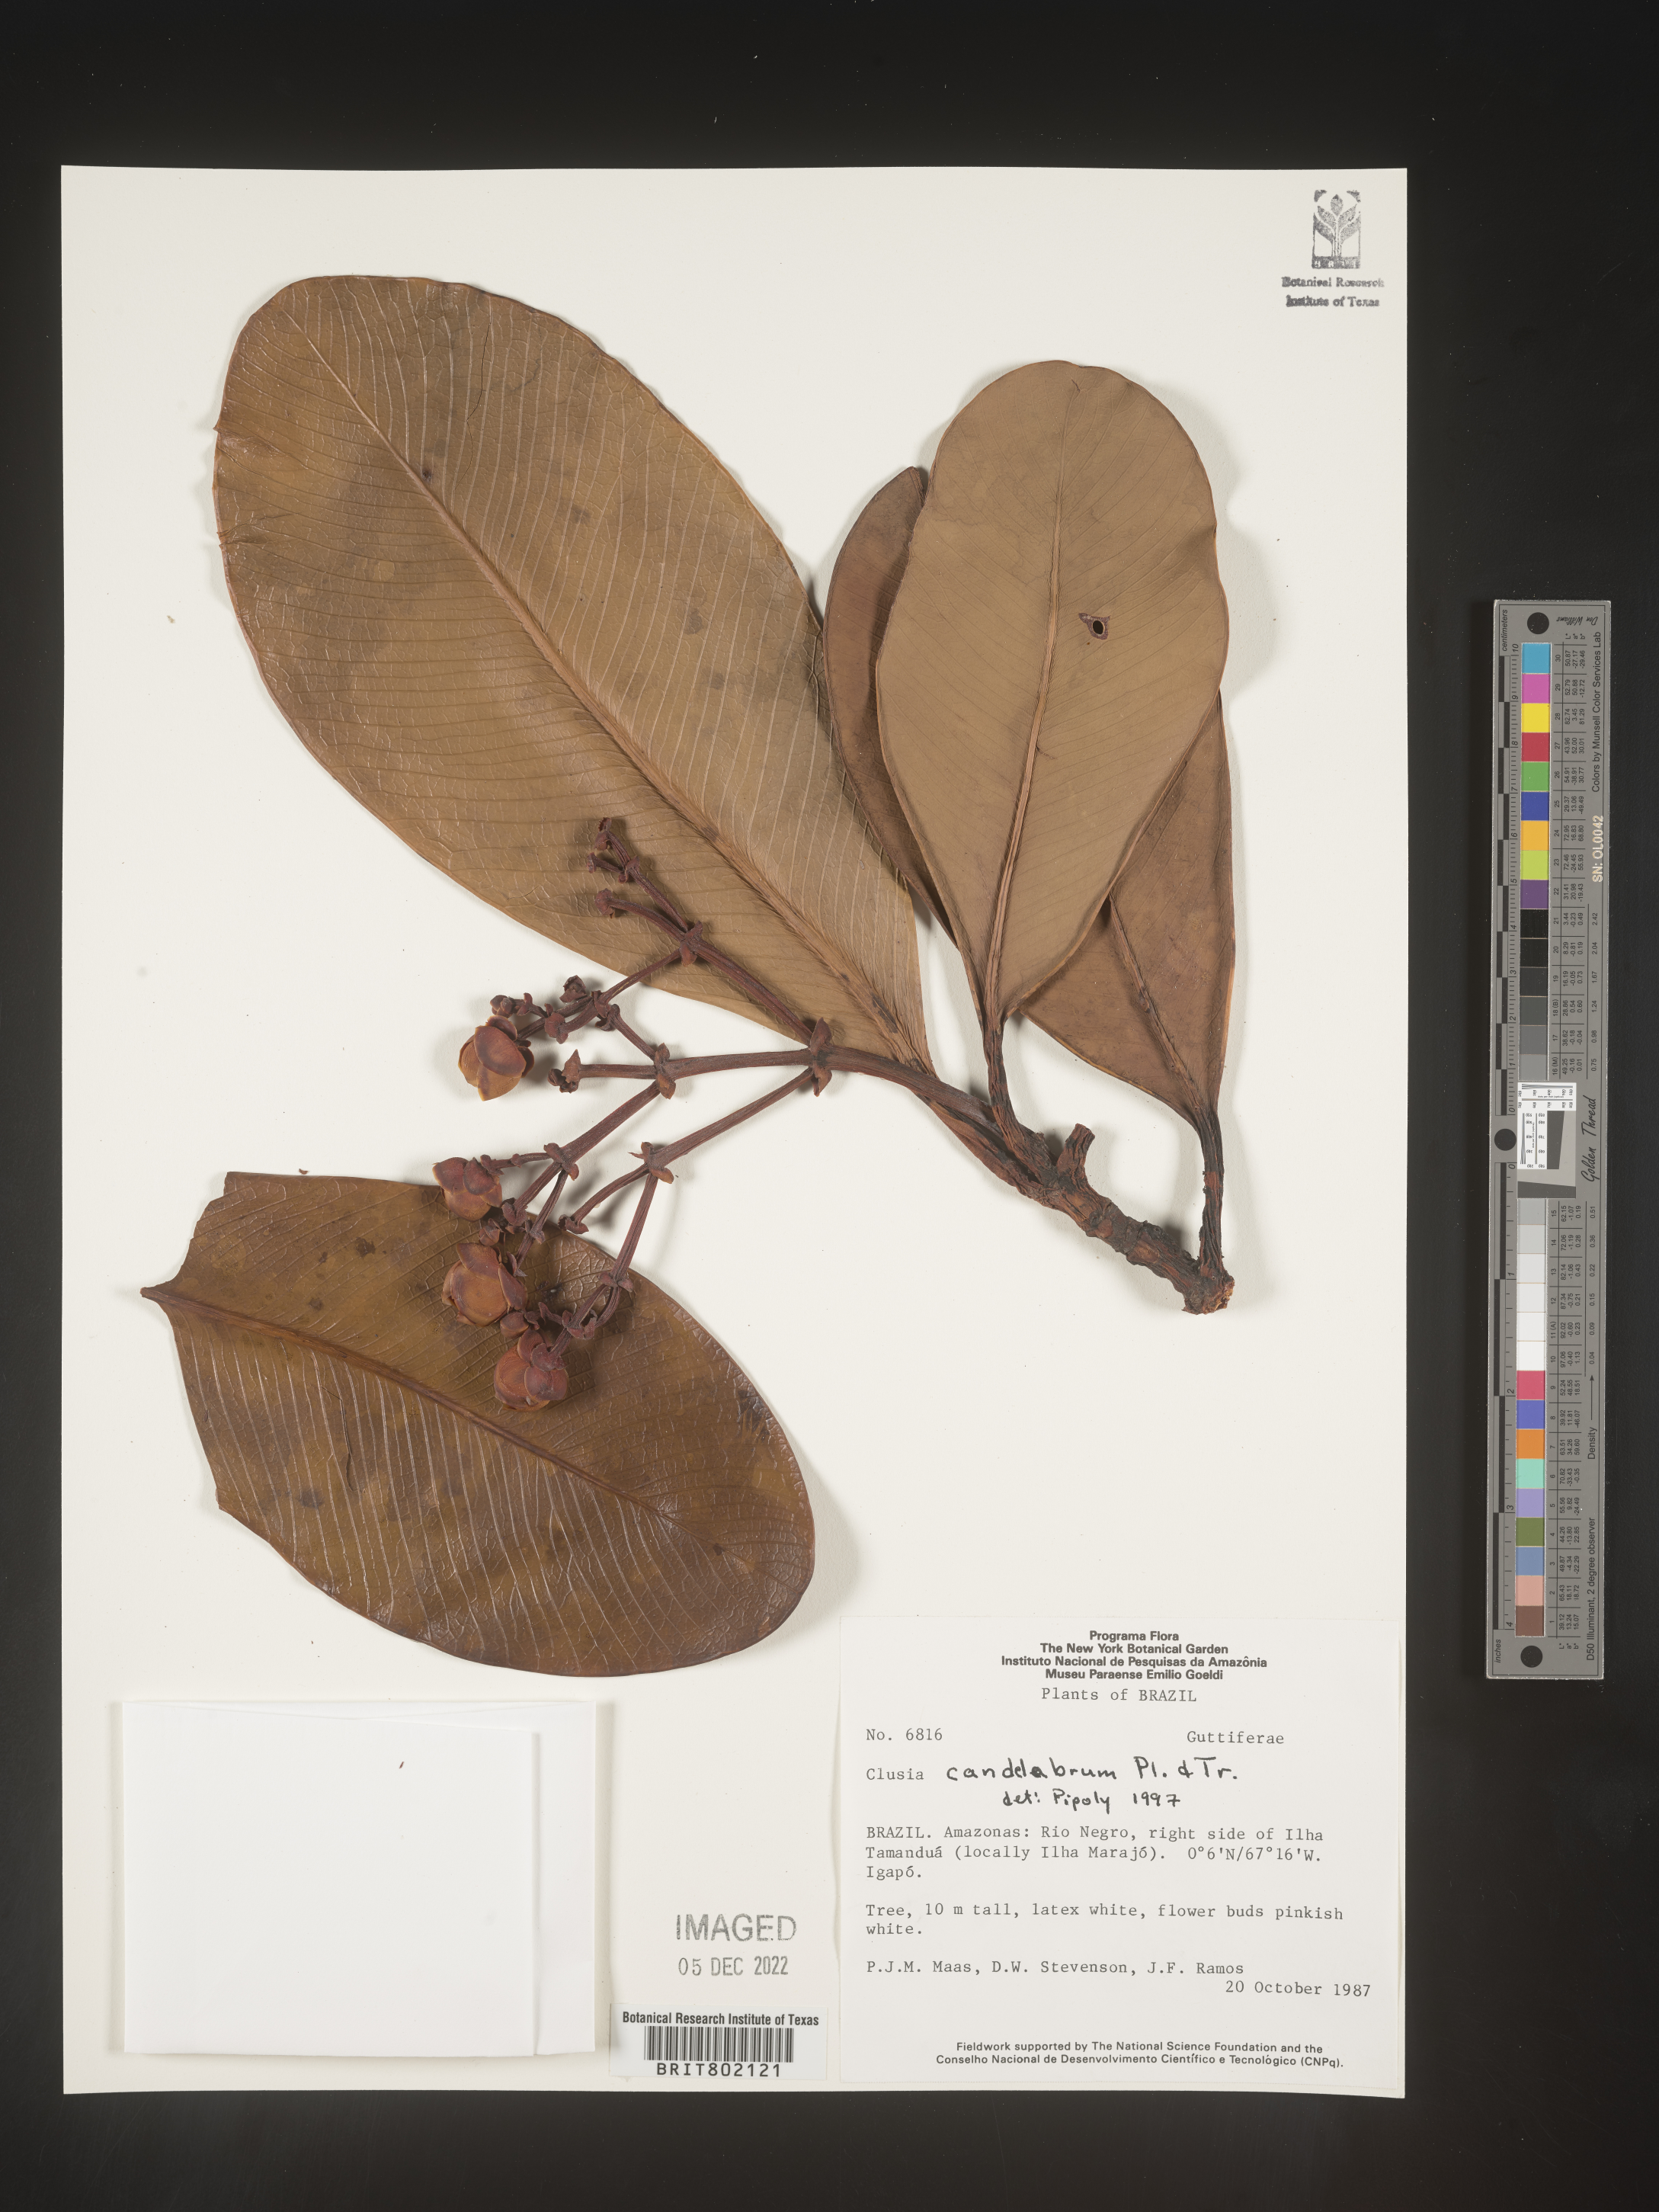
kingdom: Plantae
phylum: Tracheophyta
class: Magnoliopsida
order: Malpighiales
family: Clusiaceae
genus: Clusia
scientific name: Clusia candelabrum
